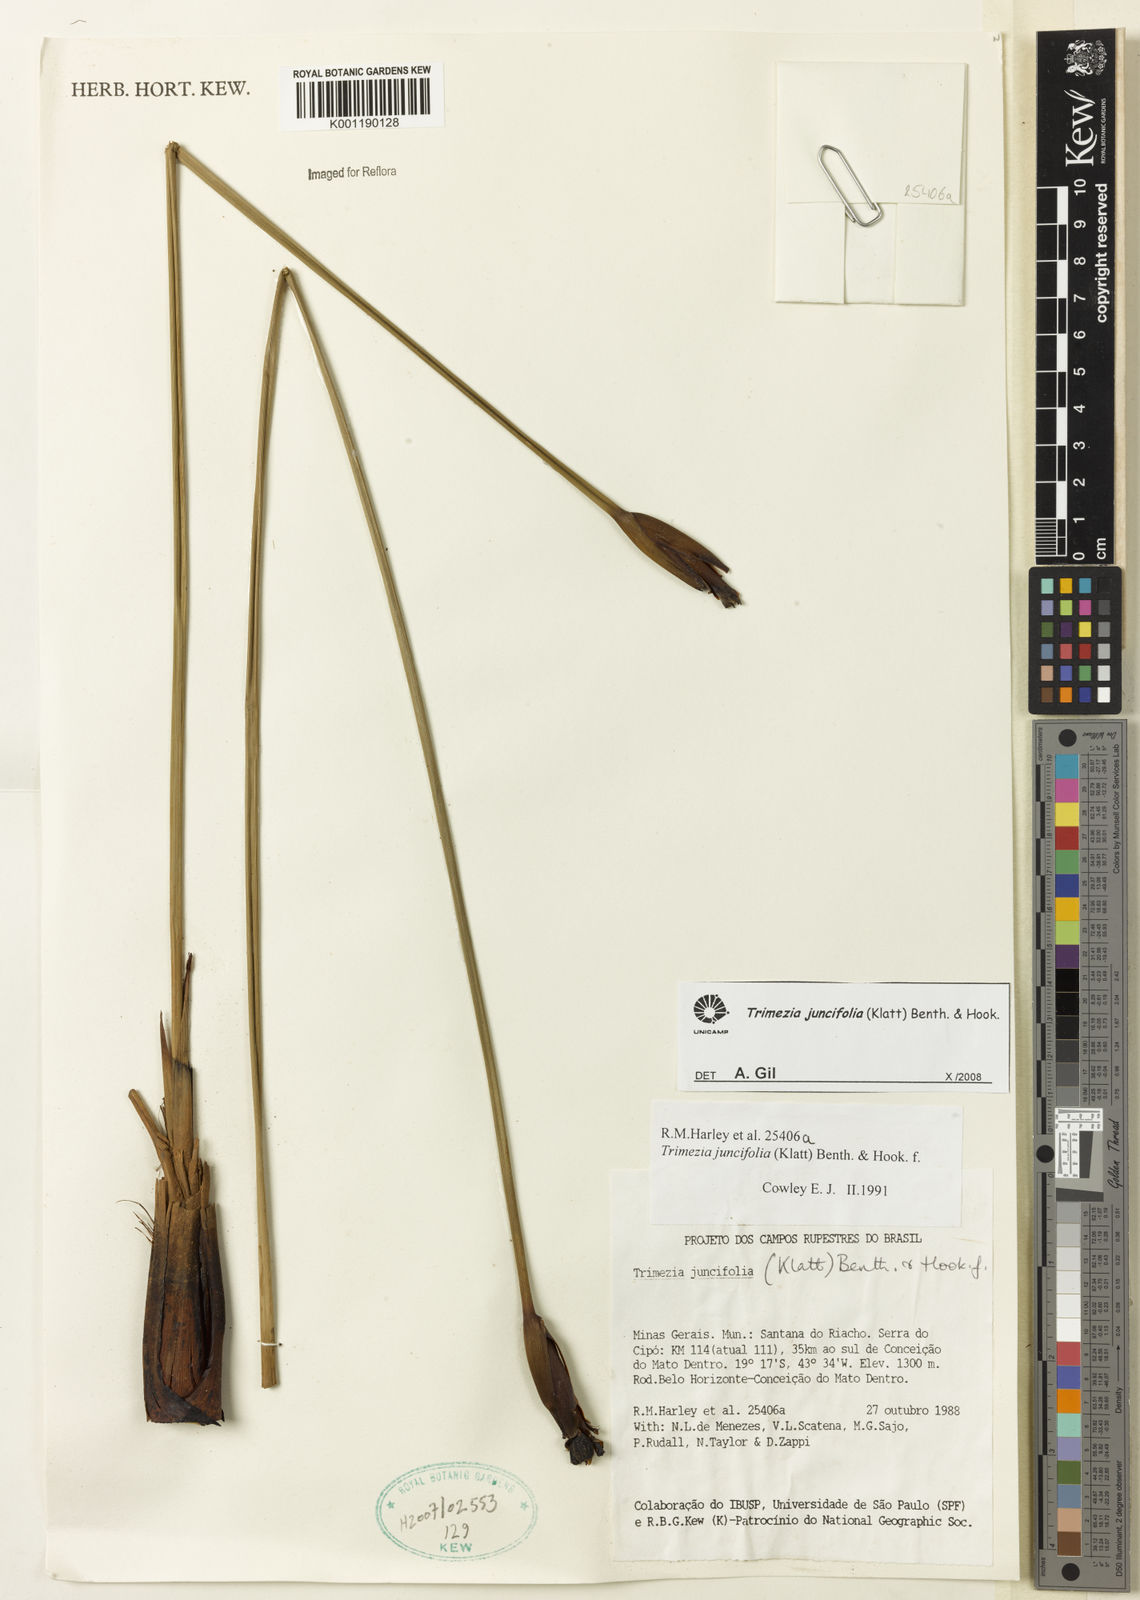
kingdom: Plantae
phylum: Tracheophyta
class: Liliopsida
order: Asparagales
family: Iridaceae
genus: Trimezia
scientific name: Trimezia juncifolia
